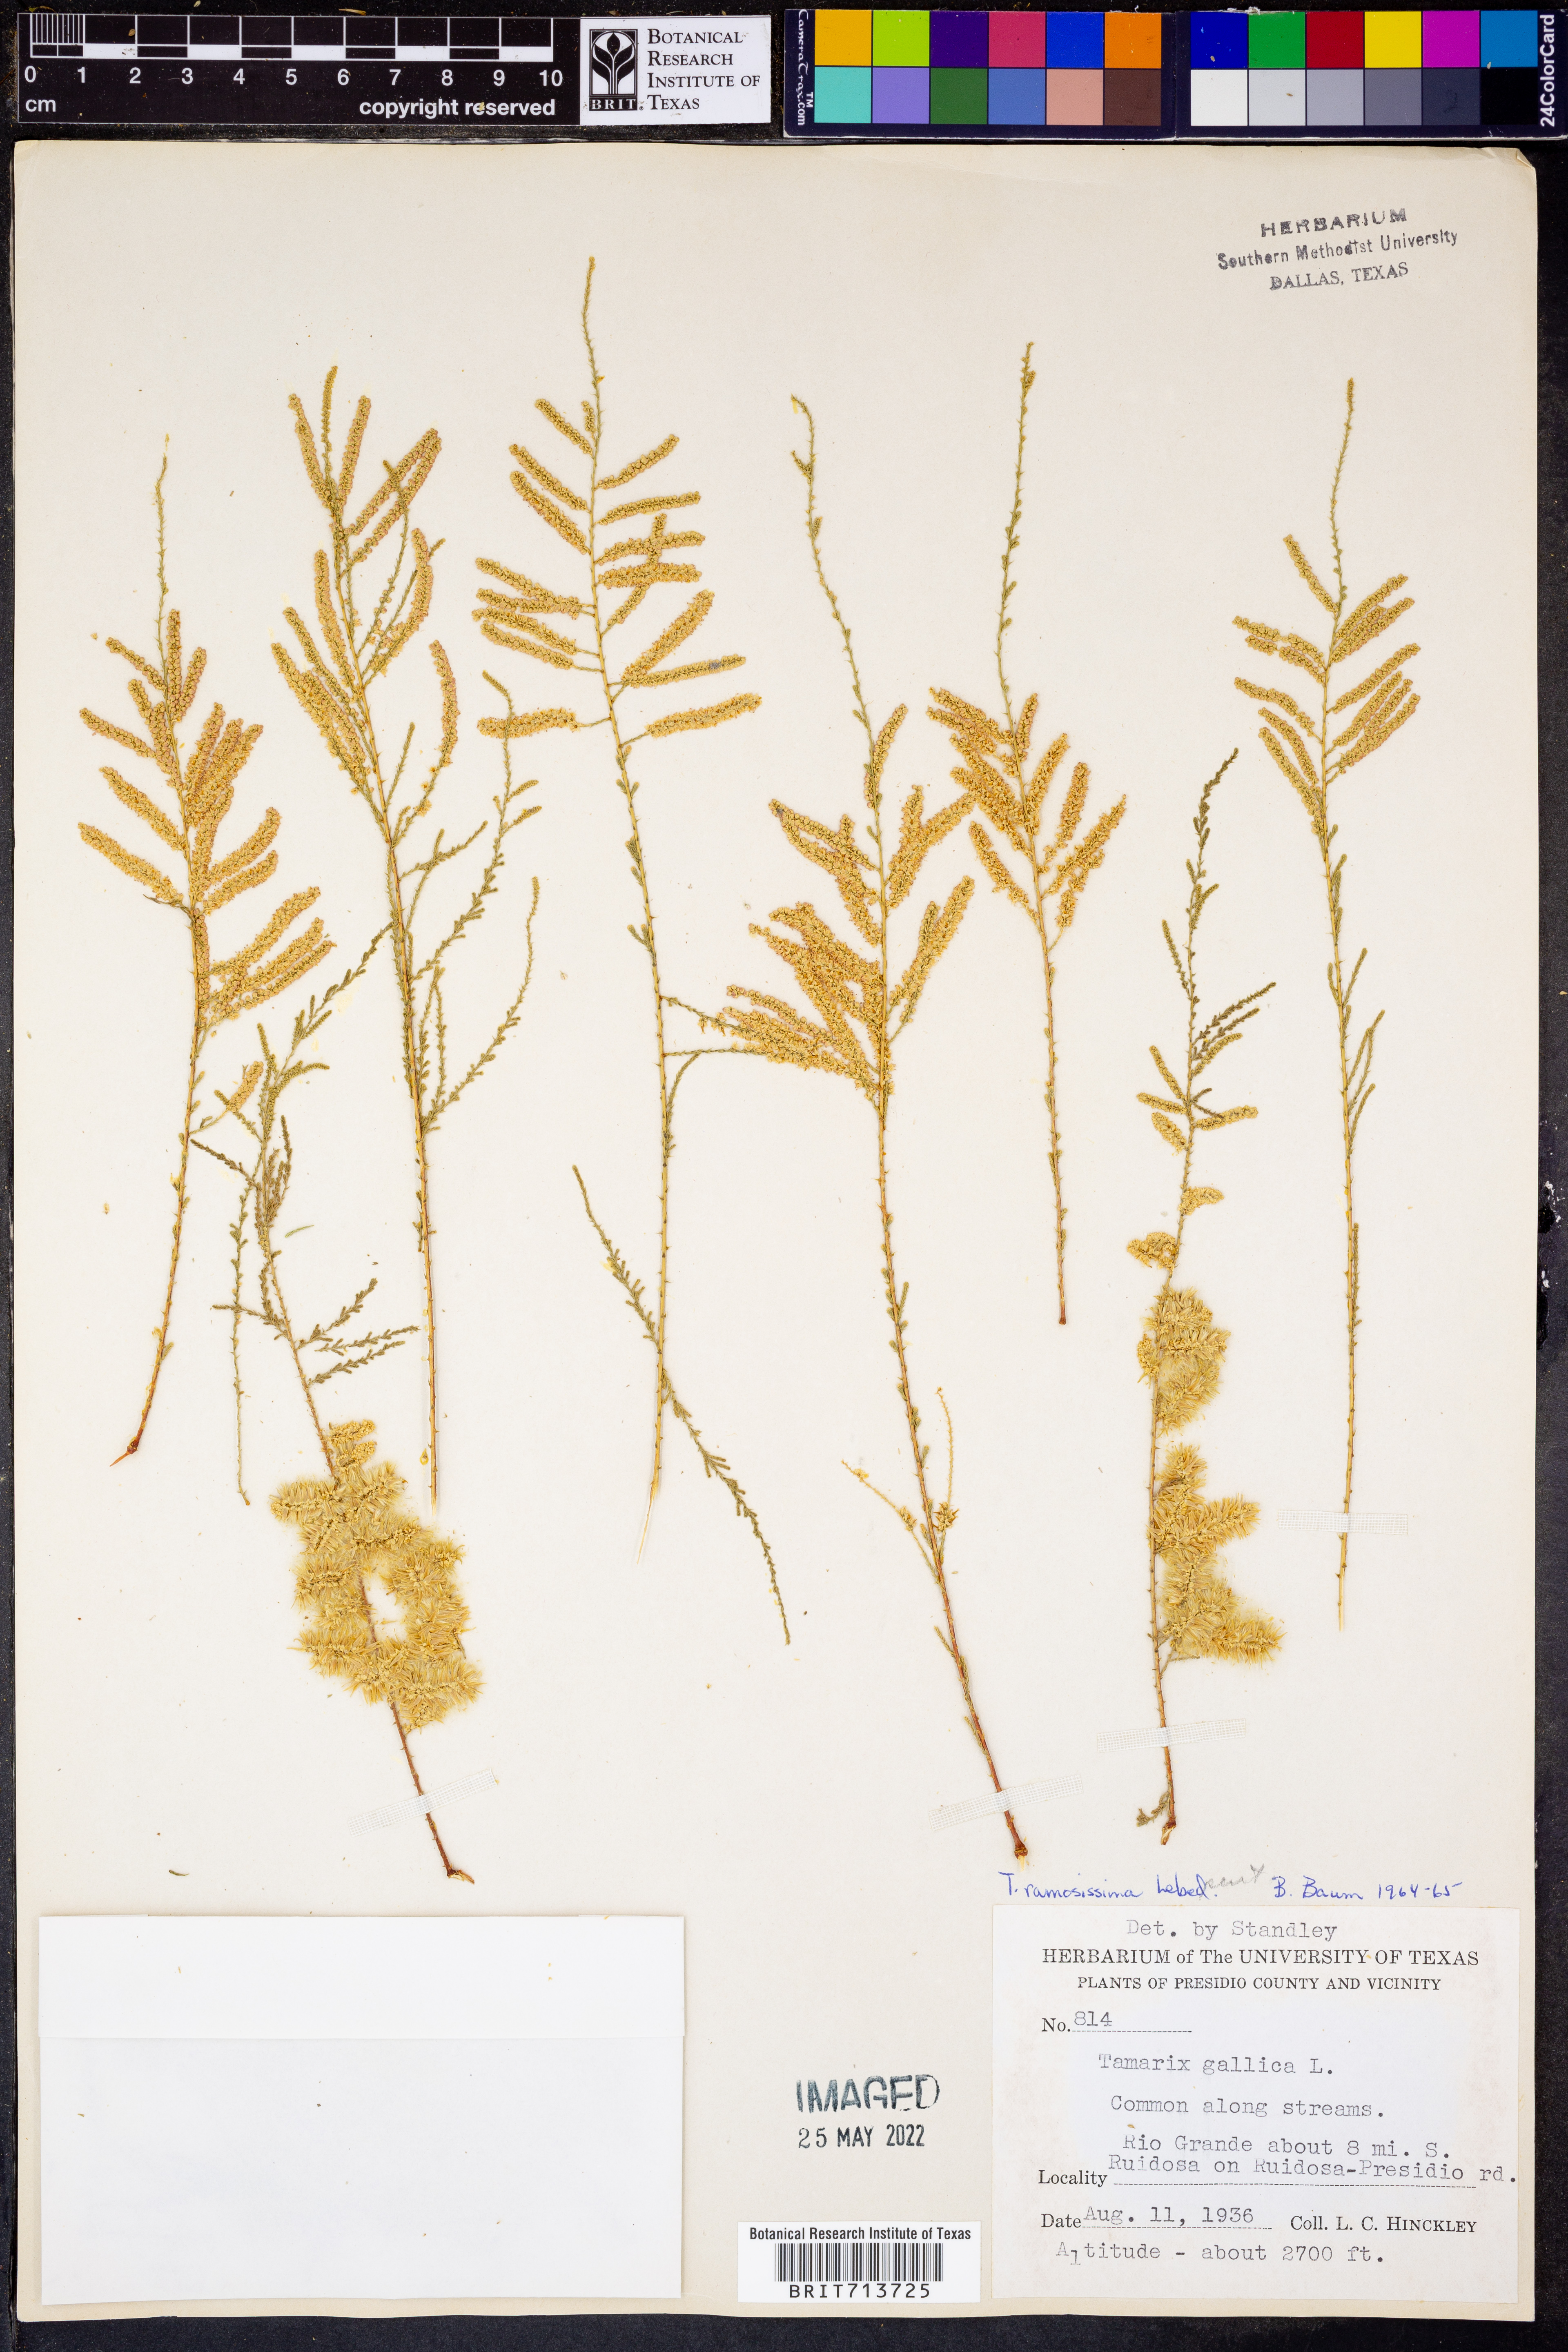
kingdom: Plantae
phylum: Tracheophyta
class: Magnoliopsida
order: Caryophyllales
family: Tamaricaceae
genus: Tamarix
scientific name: Tamarix ramosissima
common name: Pink tamarisk
